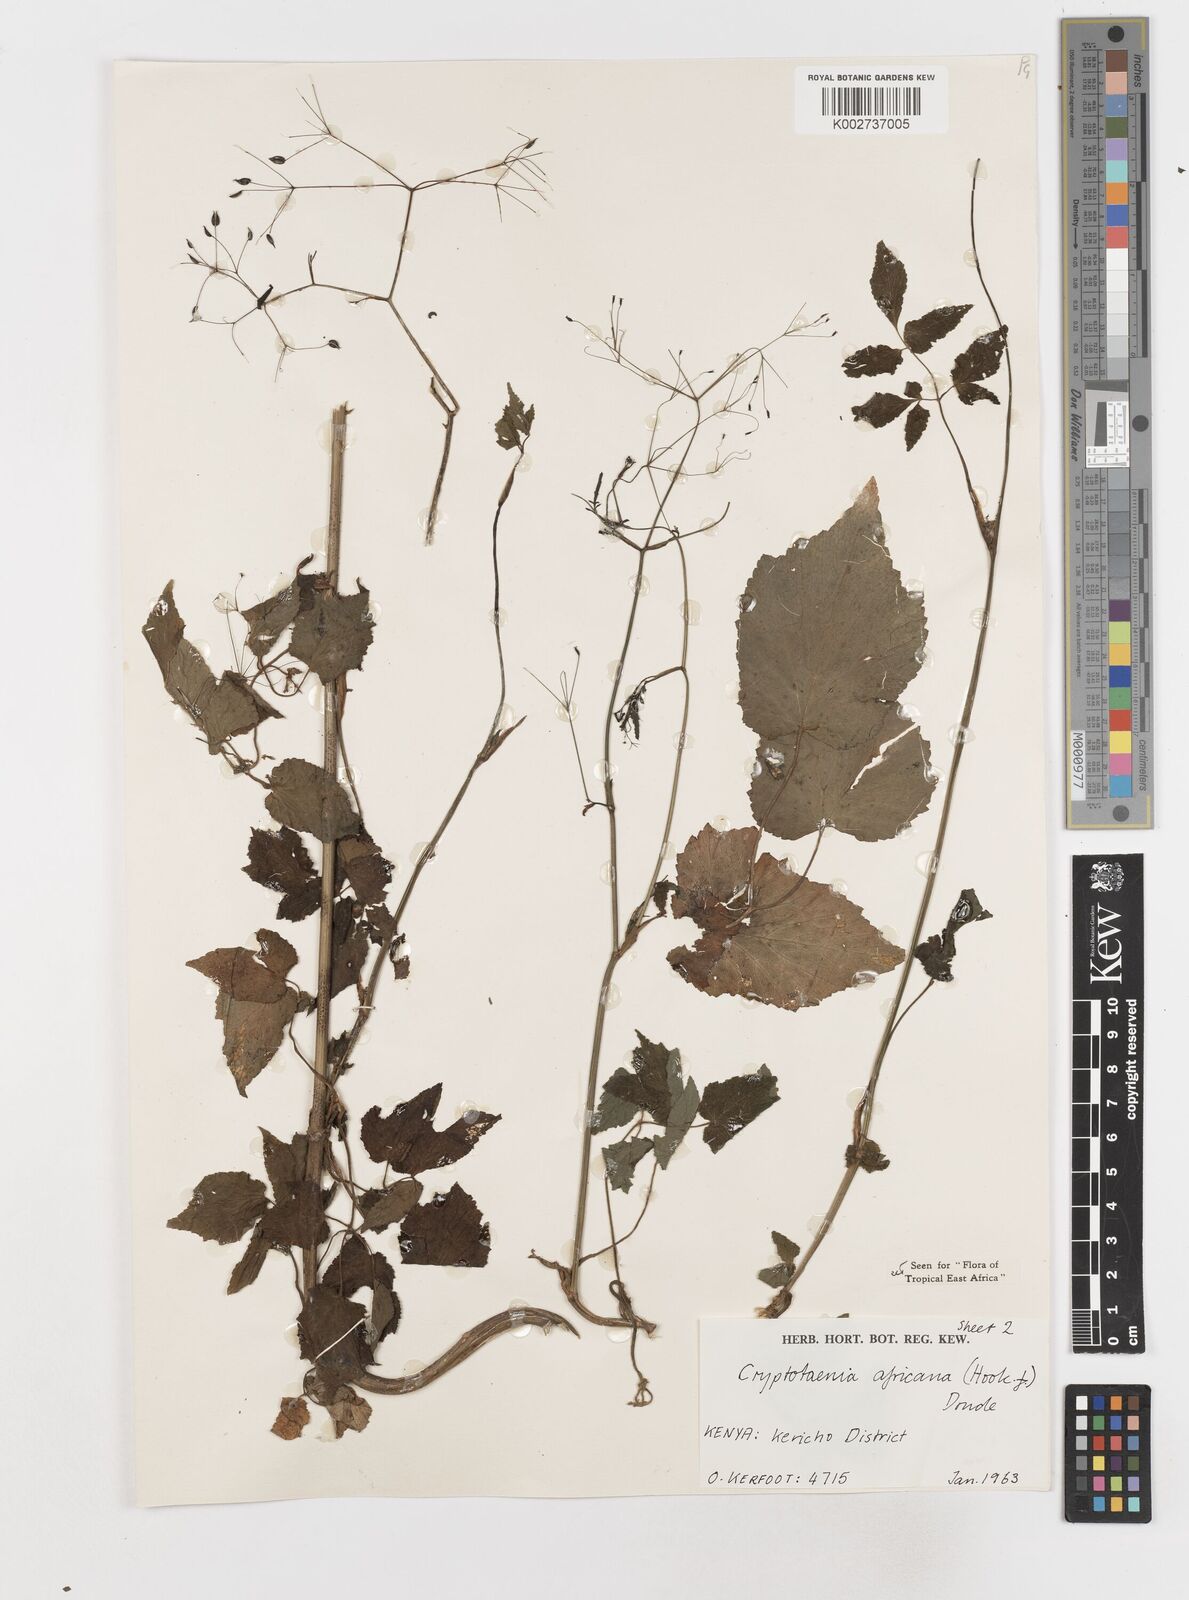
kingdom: Plantae
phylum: Tracheophyta
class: Magnoliopsida
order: Apiales
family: Apiaceae
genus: Cryptotaenia
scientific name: Cryptotaenia africana
